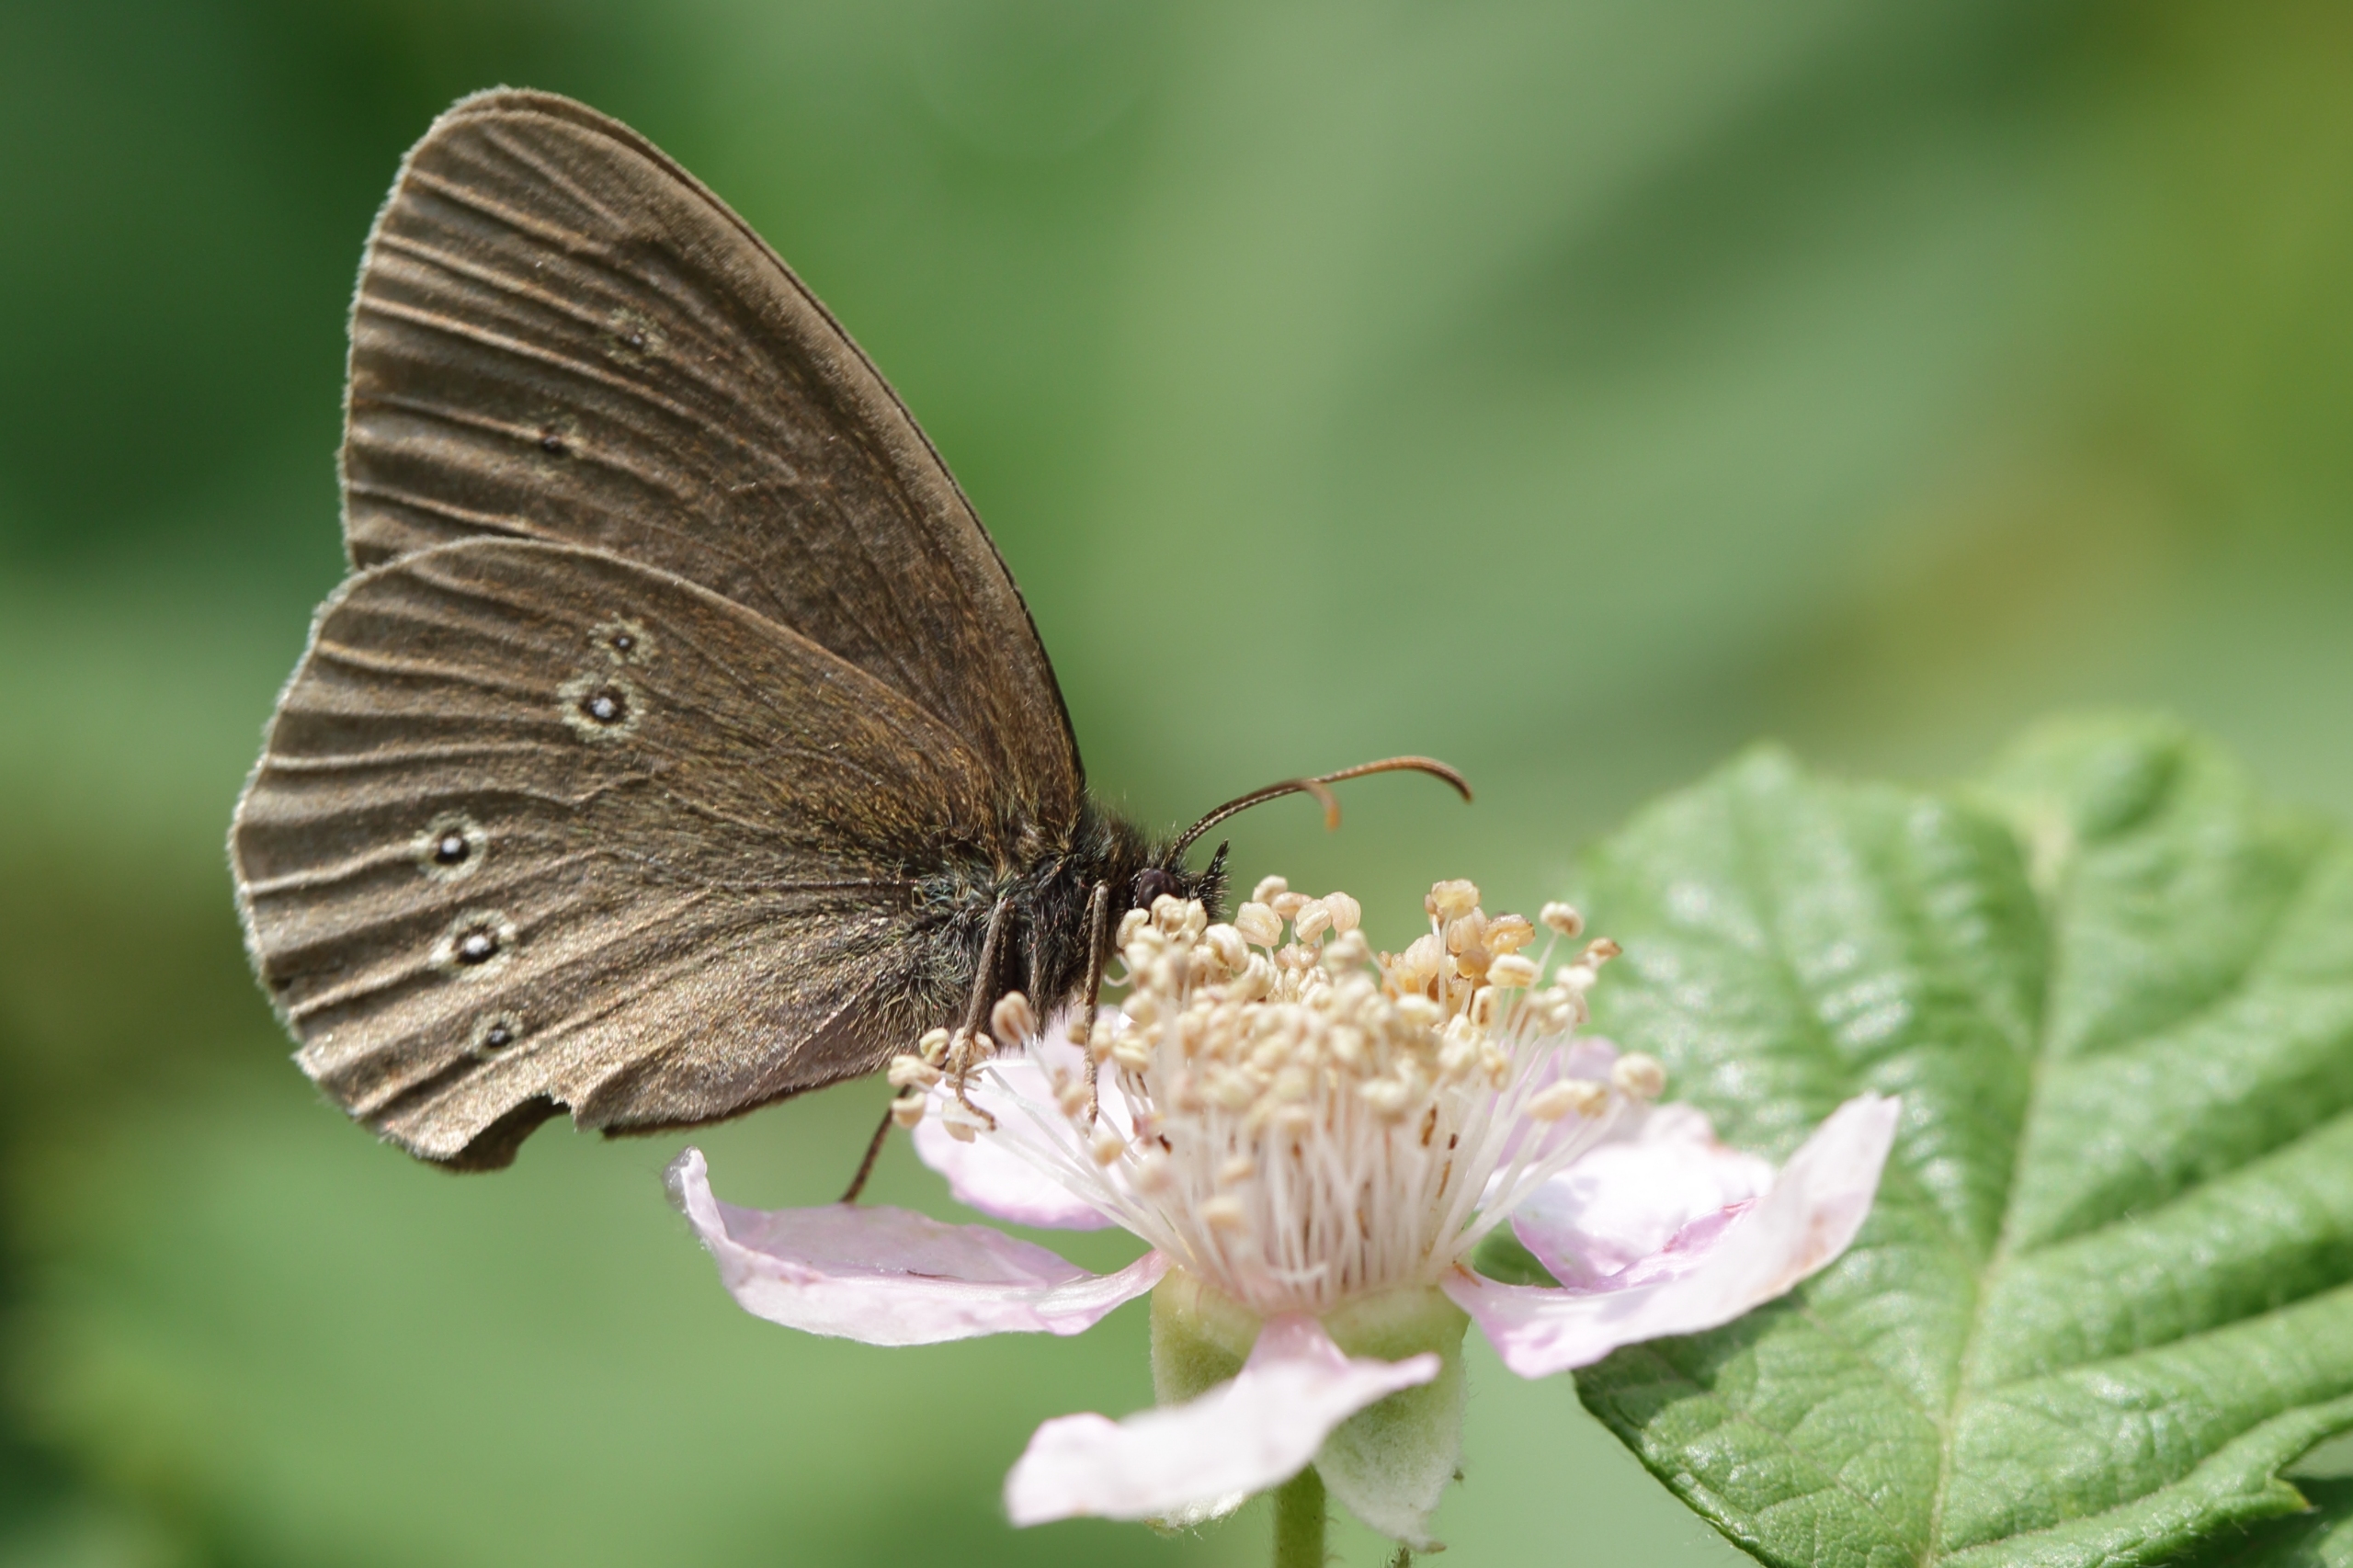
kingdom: Animalia
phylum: Arthropoda
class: Insecta
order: Lepidoptera
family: Nymphalidae
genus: Aphantopus
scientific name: Aphantopus hyperantus
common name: Engrandøje
